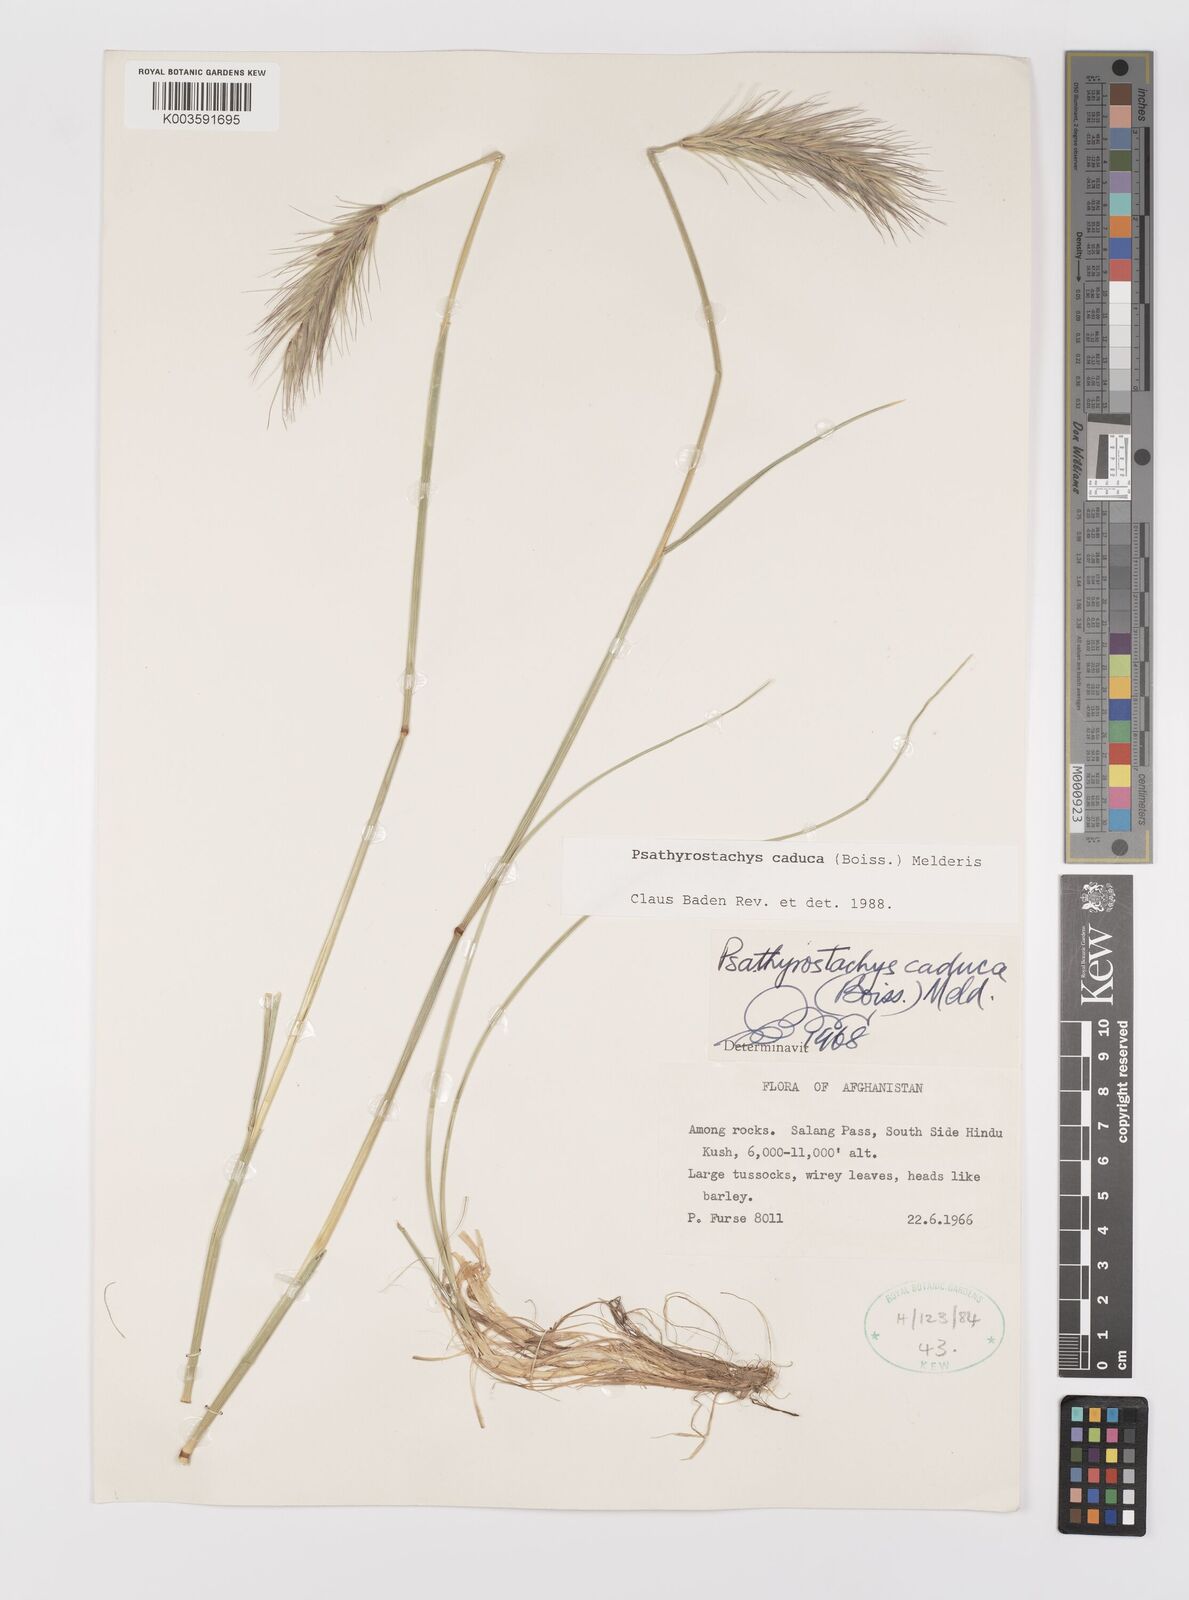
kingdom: Plantae
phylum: Tracheophyta
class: Liliopsida
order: Poales
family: Poaceae
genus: Psathyrostachys
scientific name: Psathyrostachys caduca
